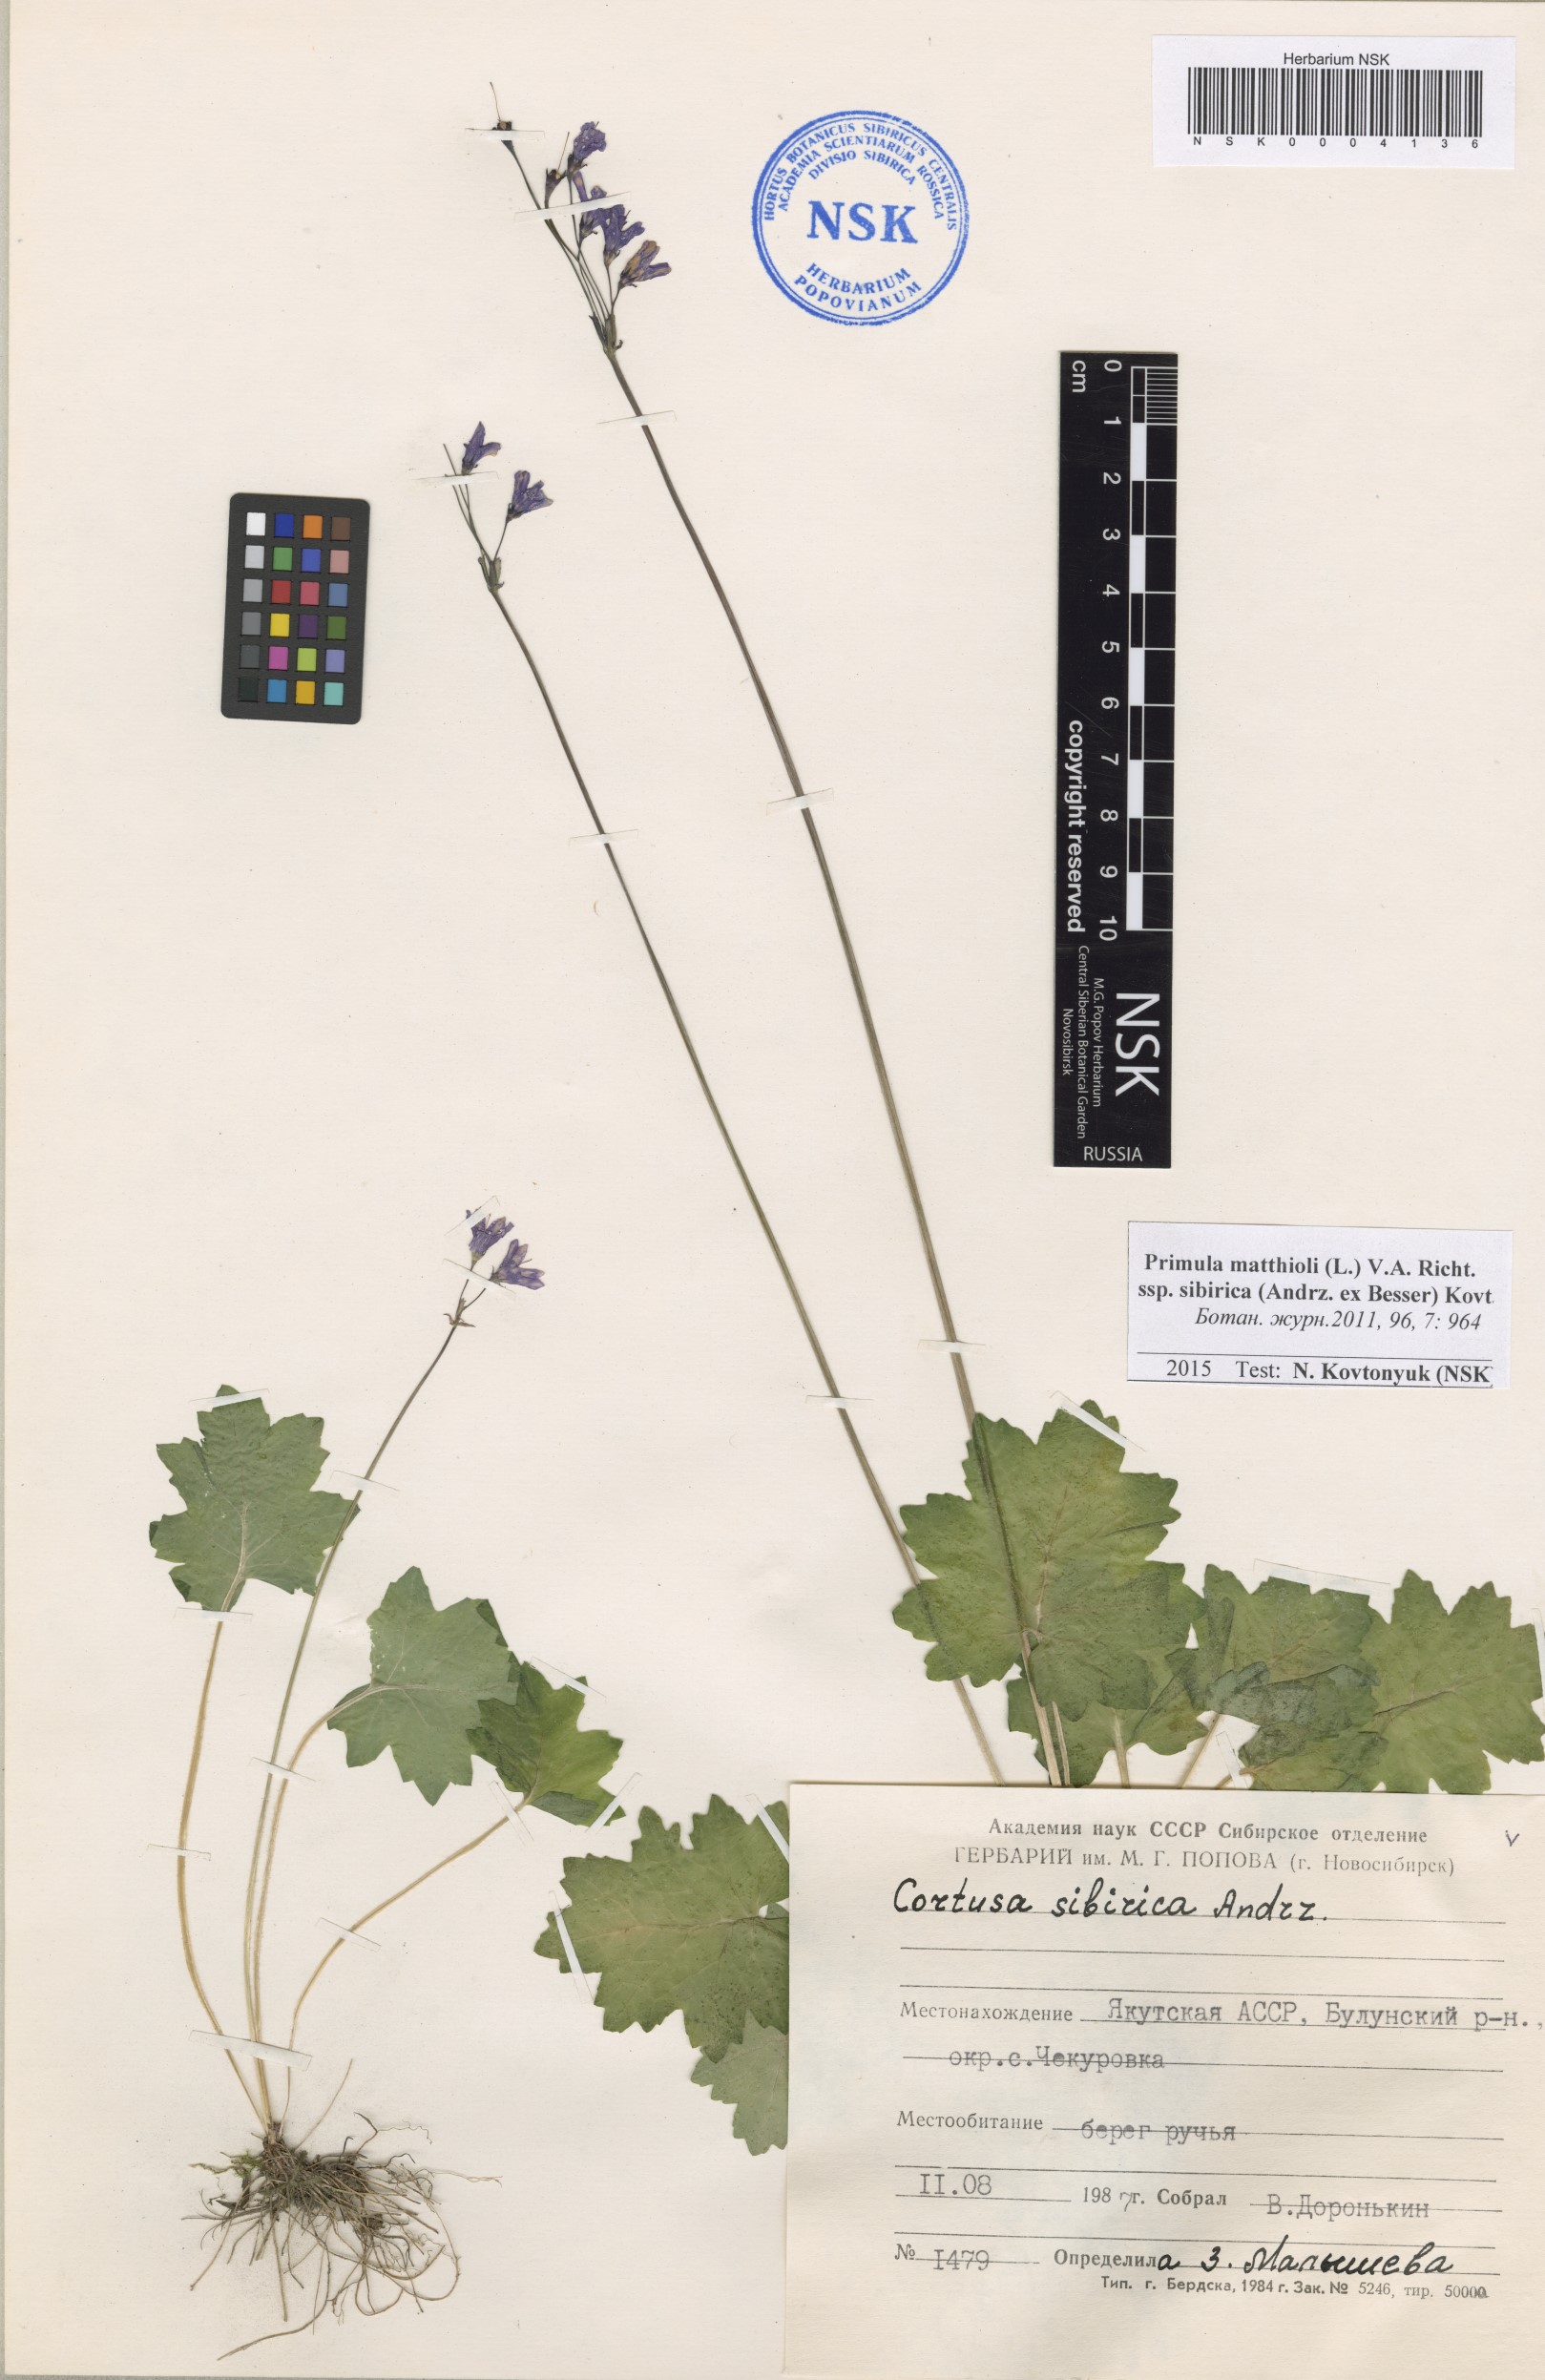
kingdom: Plantae
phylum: Tracheophyta
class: Magnoliopsida
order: Ericales
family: Primulaceae
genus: Primula
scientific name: Primula matthioli
